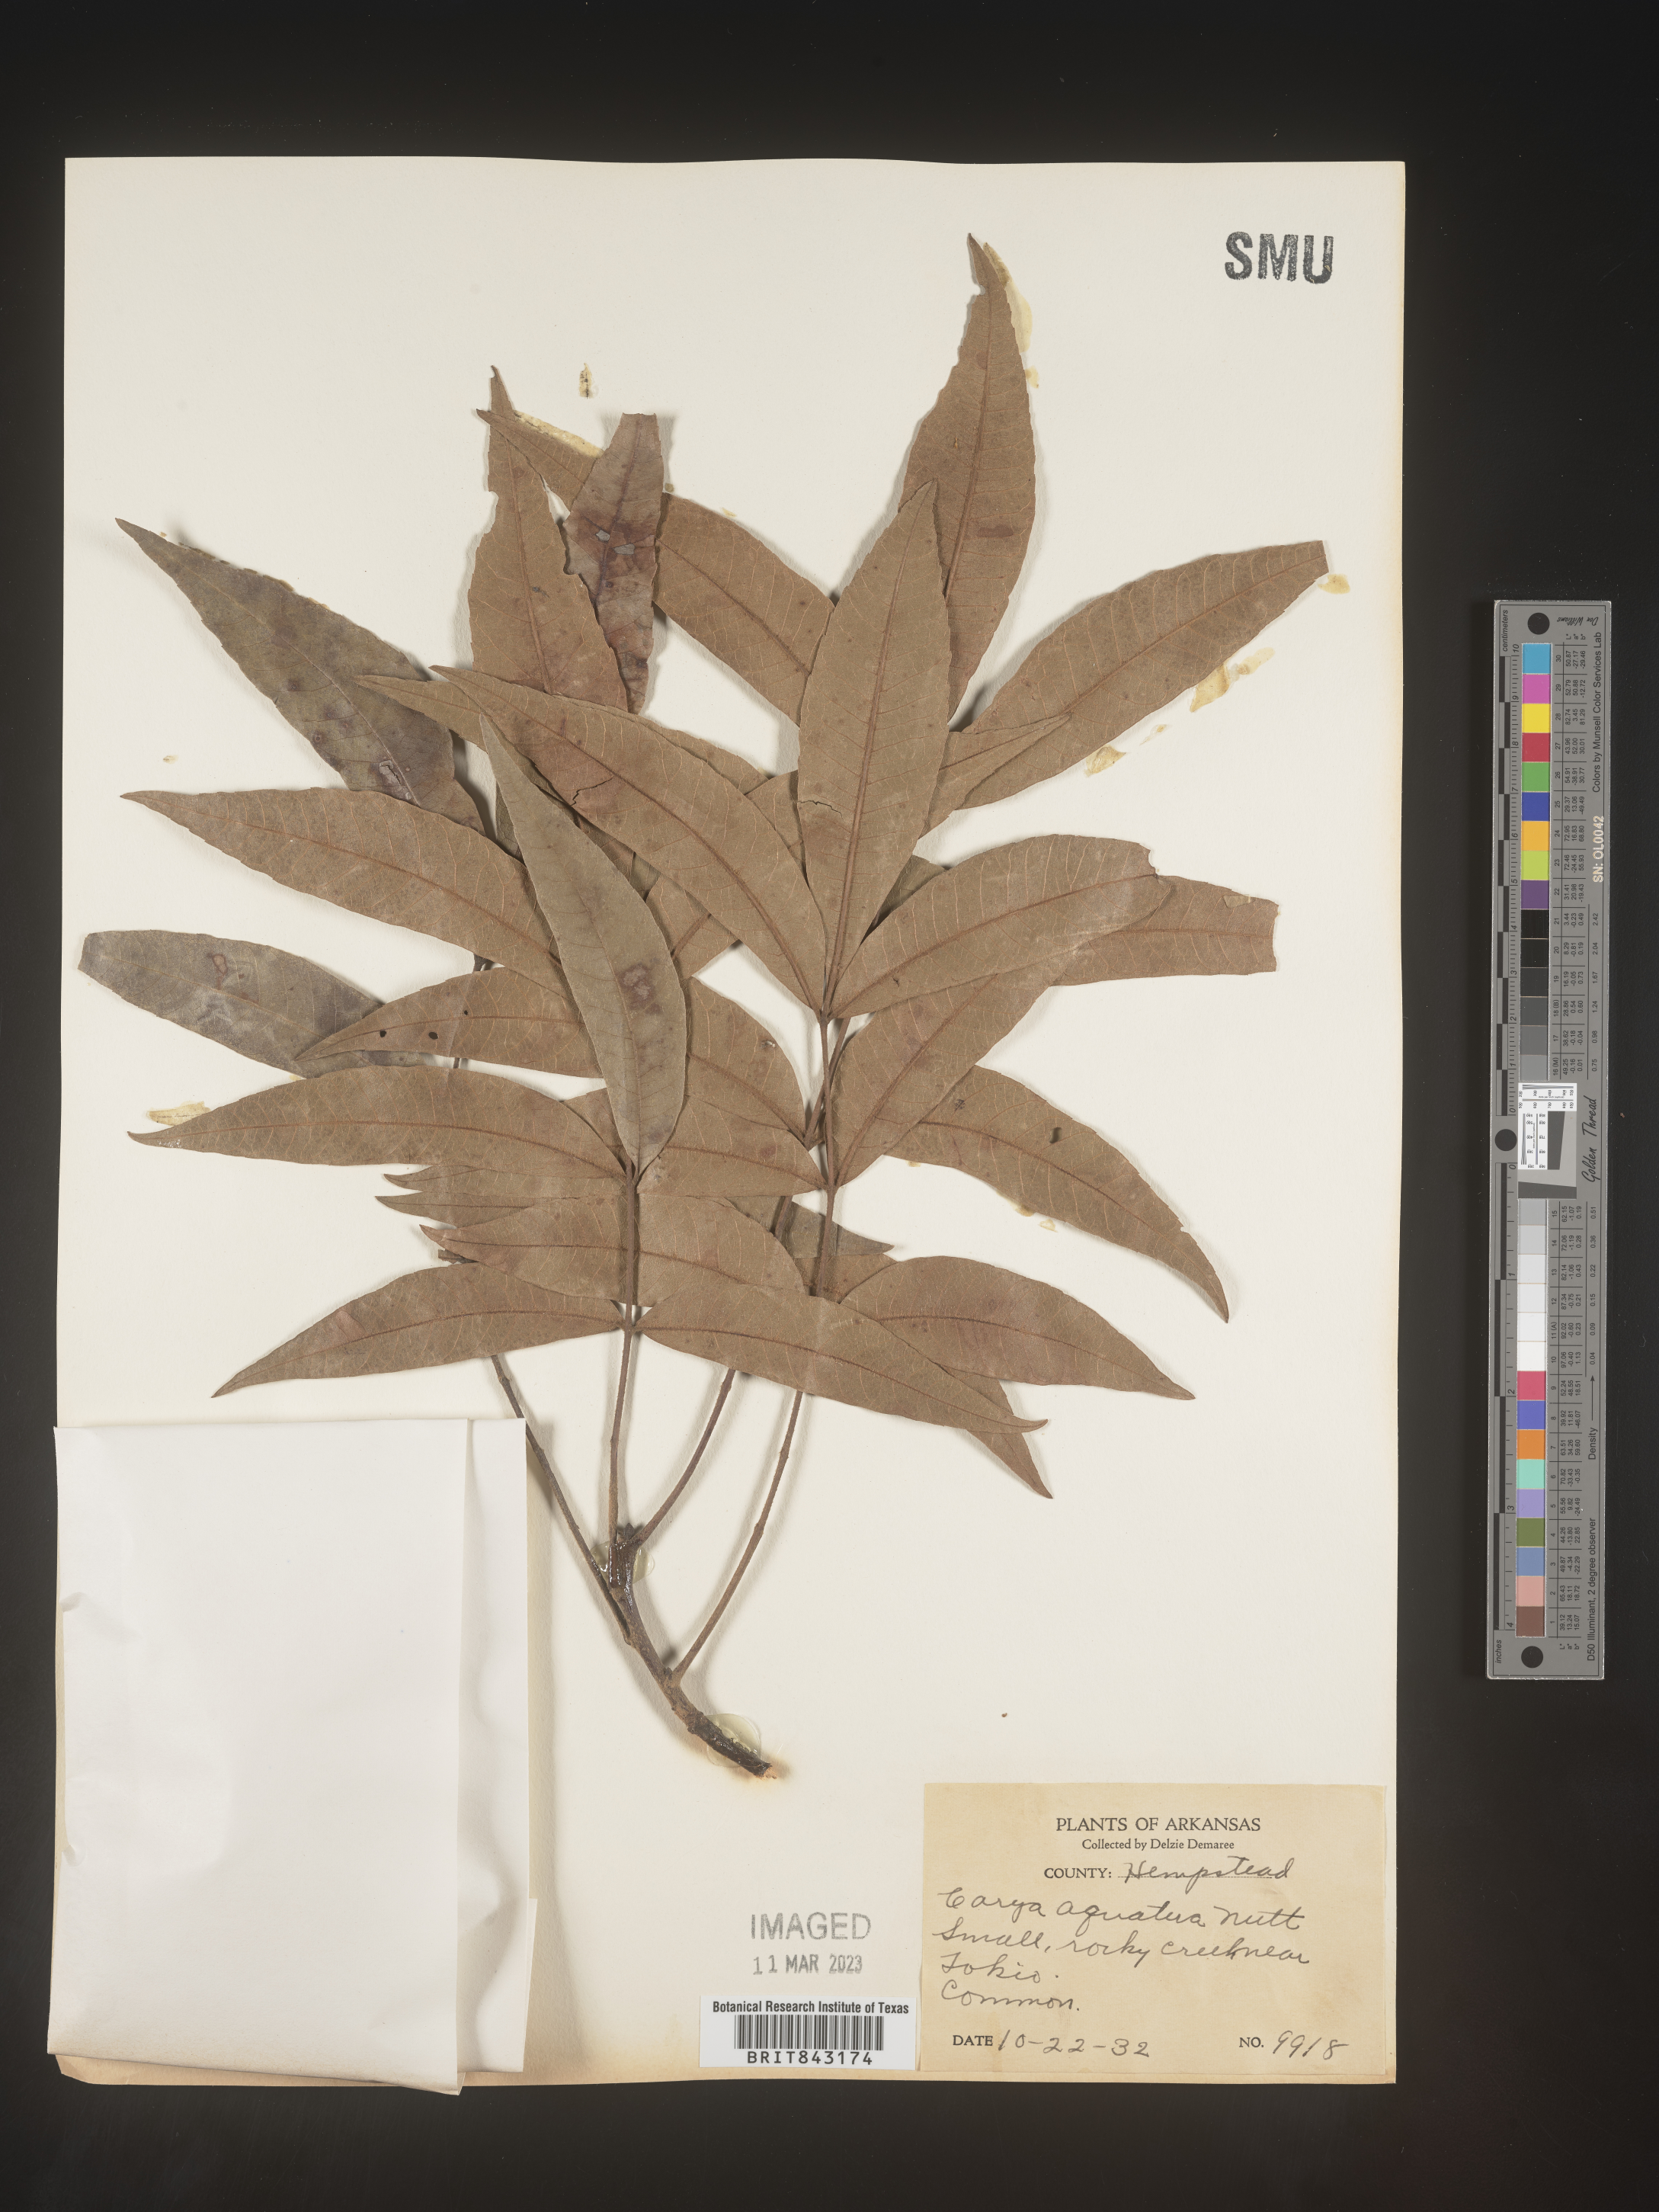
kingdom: Plantae
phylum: Tracheophyta
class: Magnoliopsida
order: Fagales
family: Juglandaceae
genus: Carya
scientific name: Carya aquatica
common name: Water hickory
